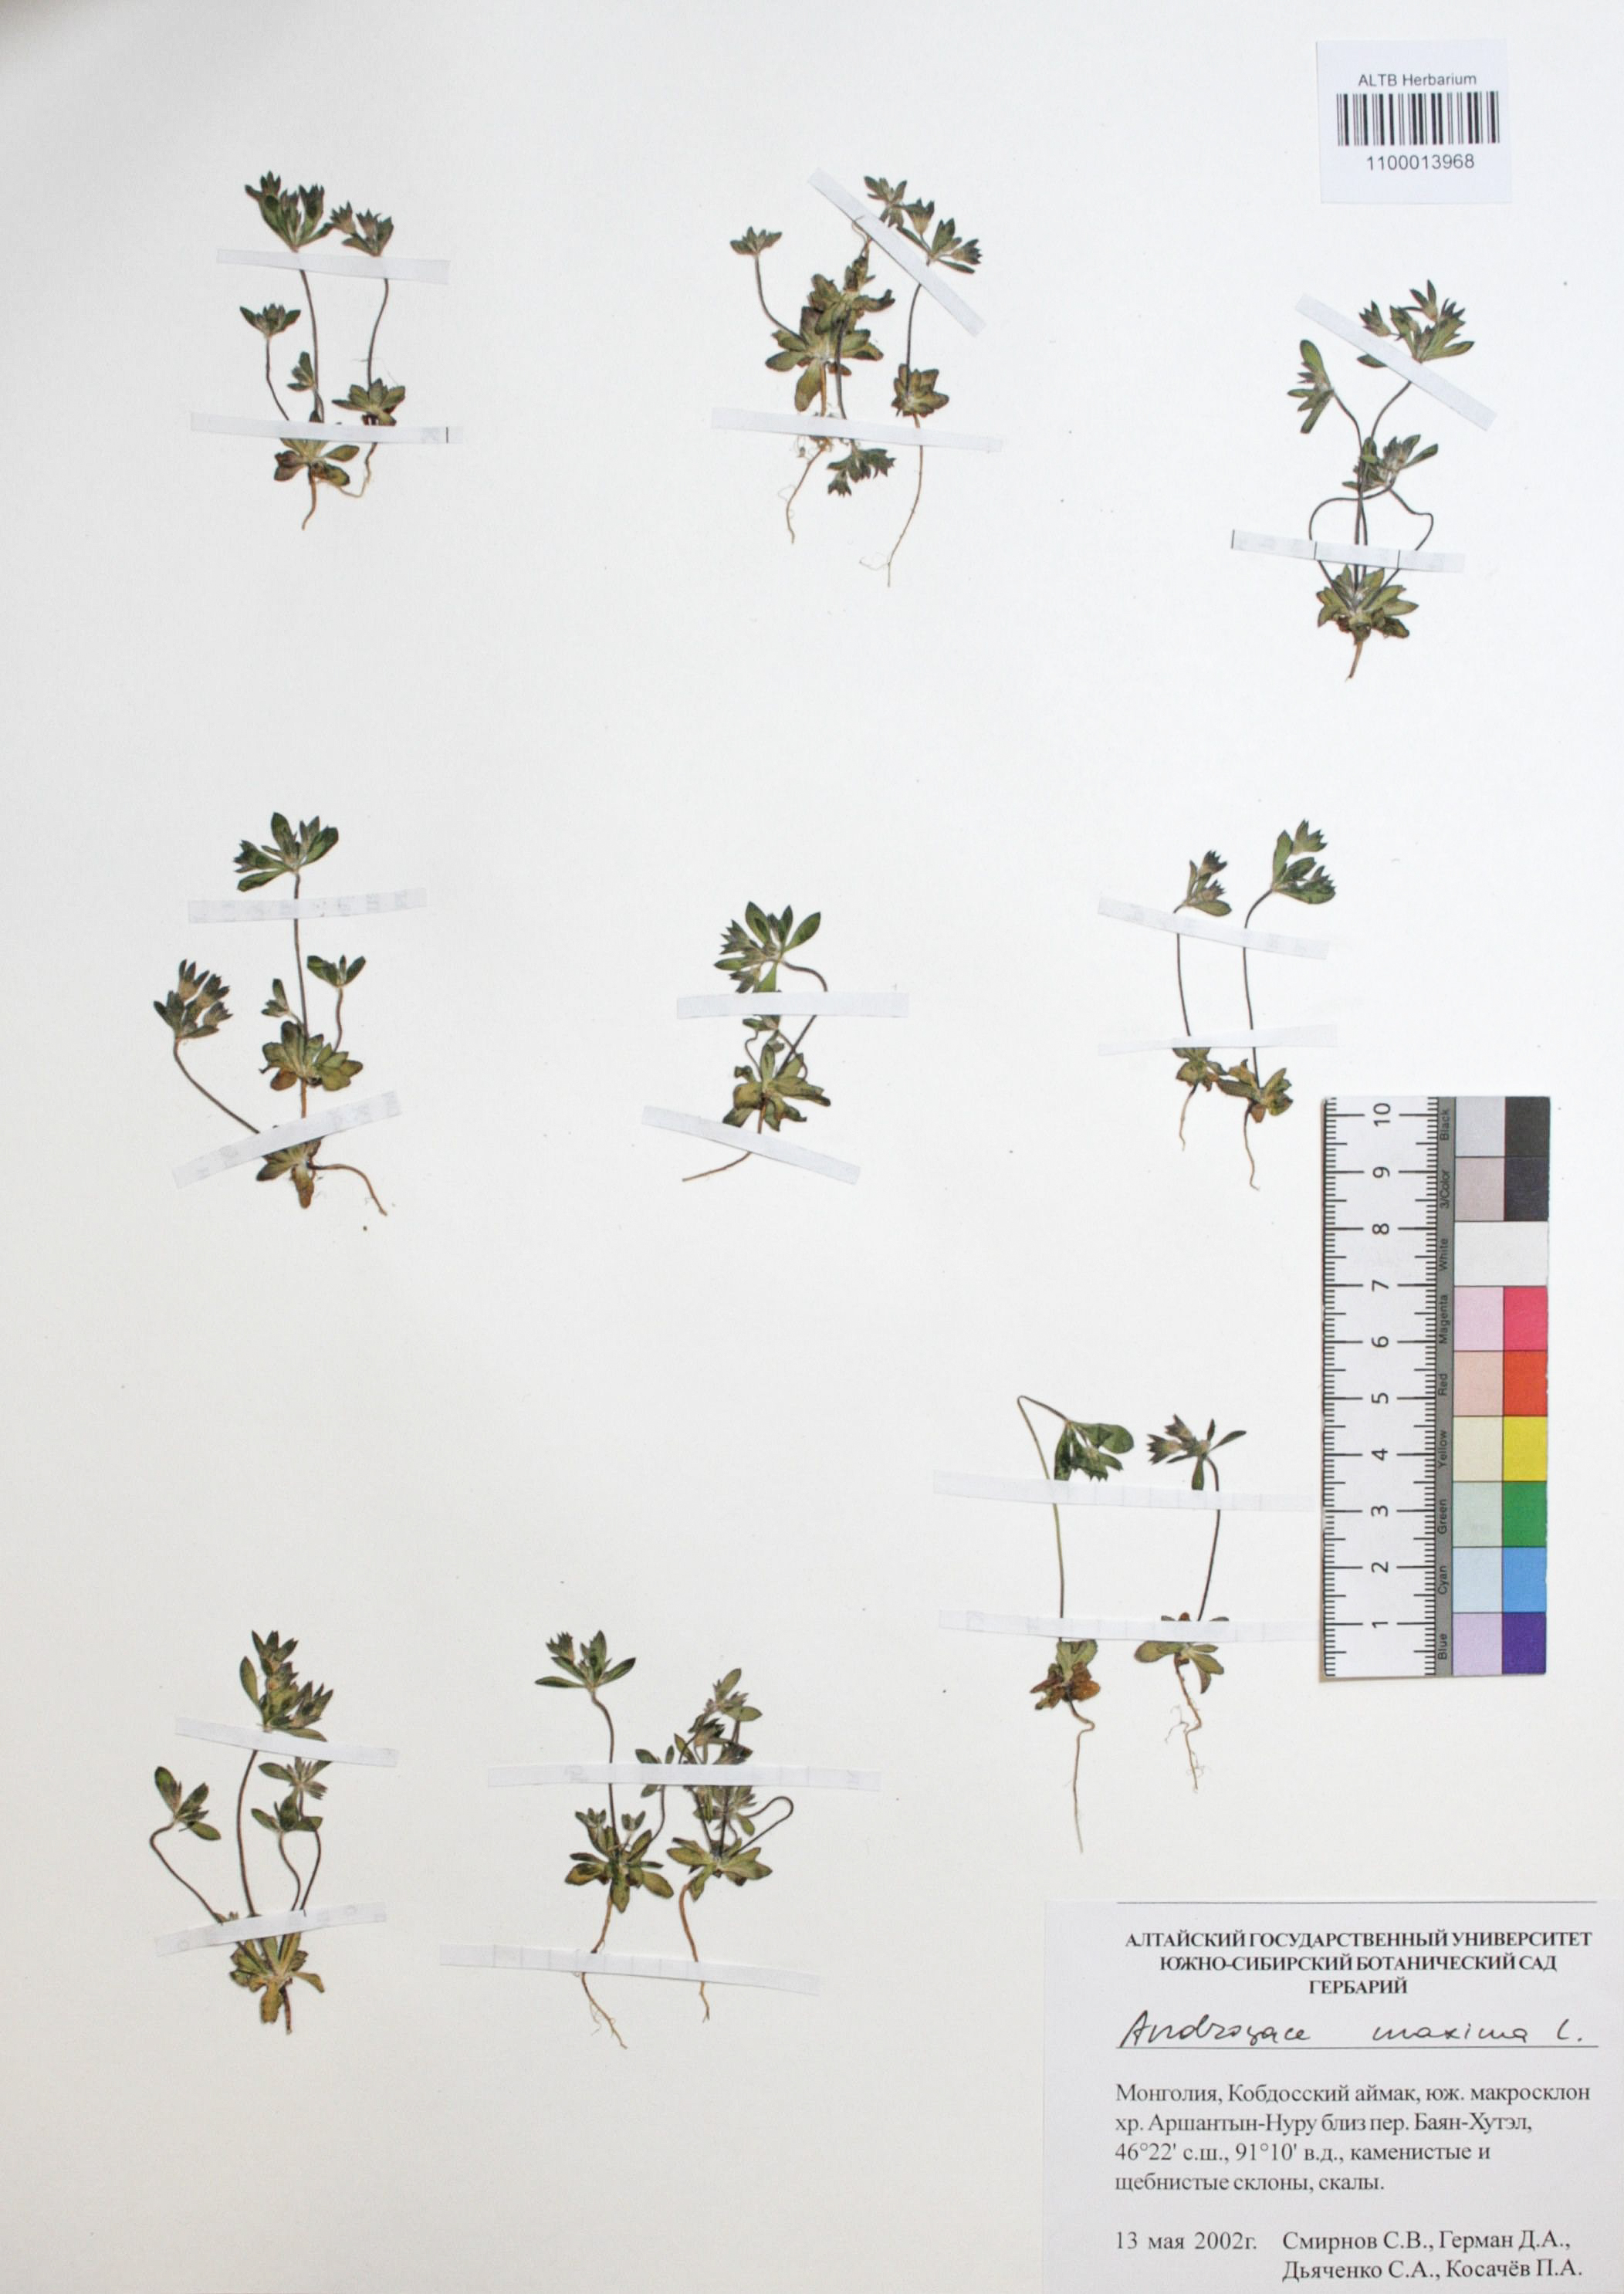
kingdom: Plantae
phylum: Tracheophyta
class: Magnoliopsida
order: Ericales
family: Primulaceae
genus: Androsace
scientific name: Androsace maxima
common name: Annual androsace
